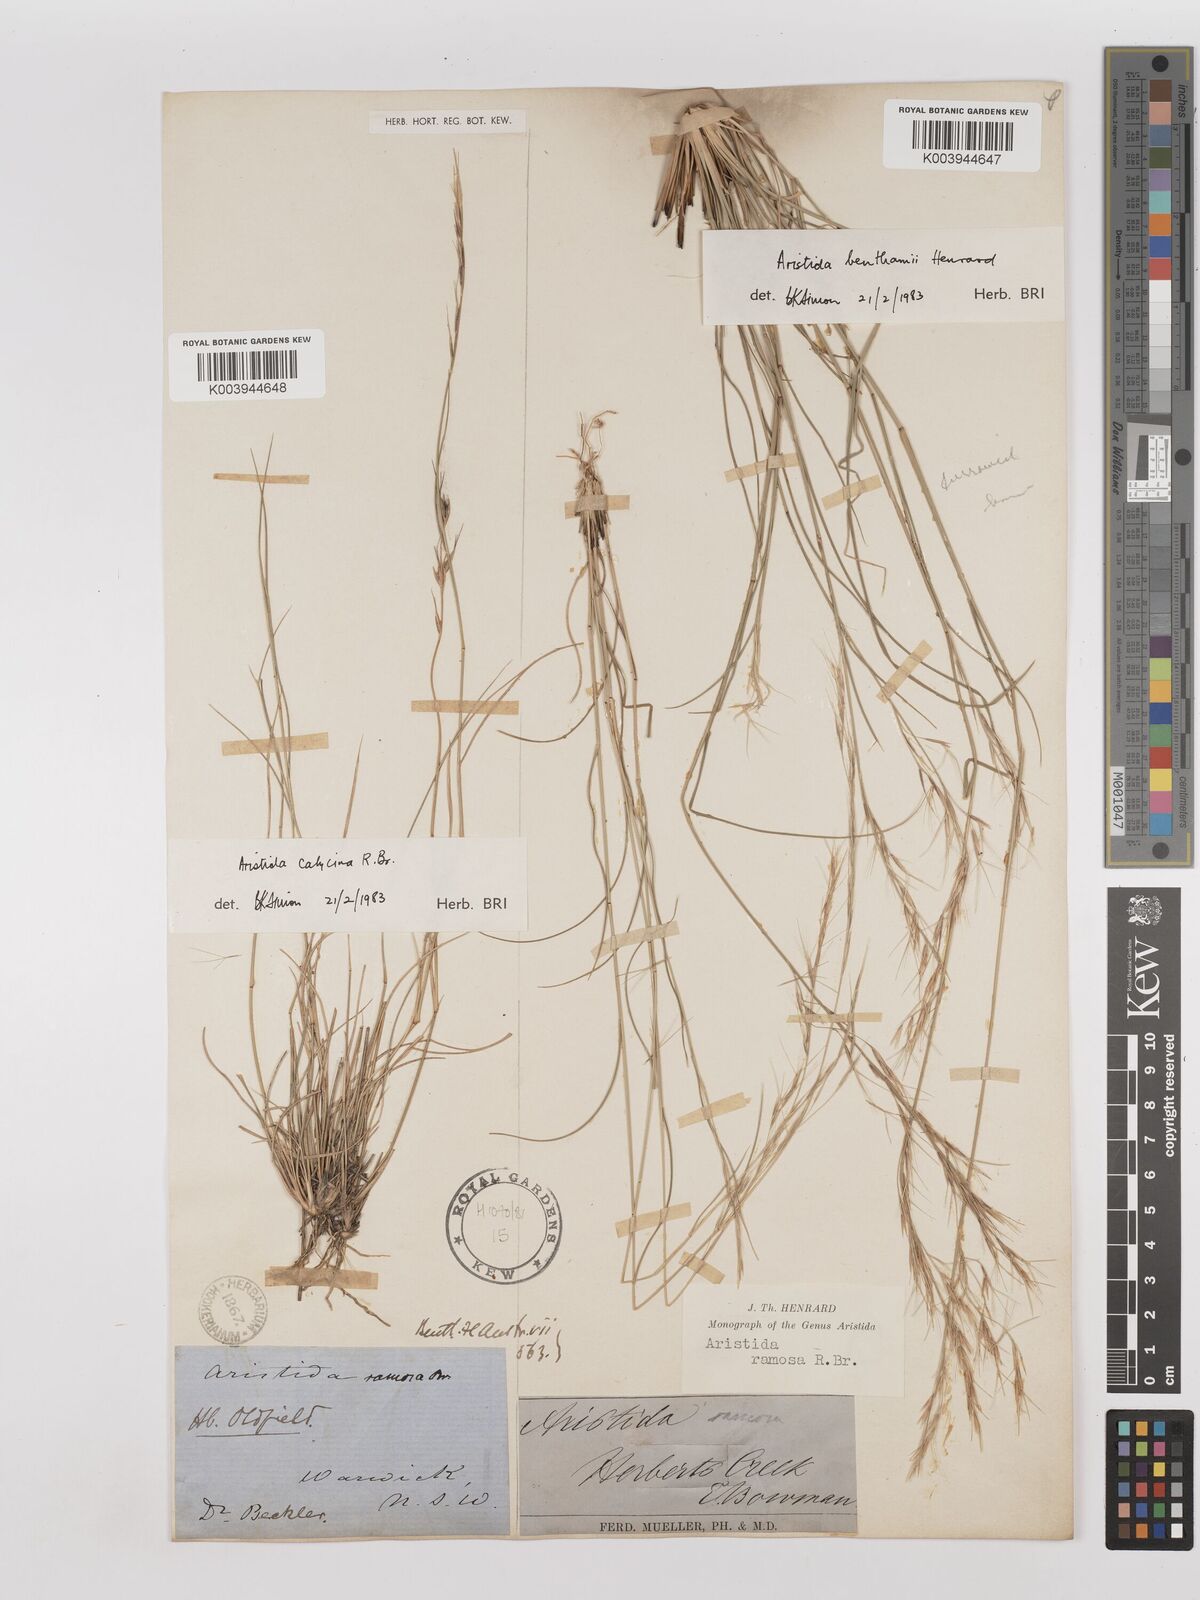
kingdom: Plantae
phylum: Tracheophyta
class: Liliopsida
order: Poales
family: Poaceae
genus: Aristida
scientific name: Aristida calycina
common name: Dark wire grass
